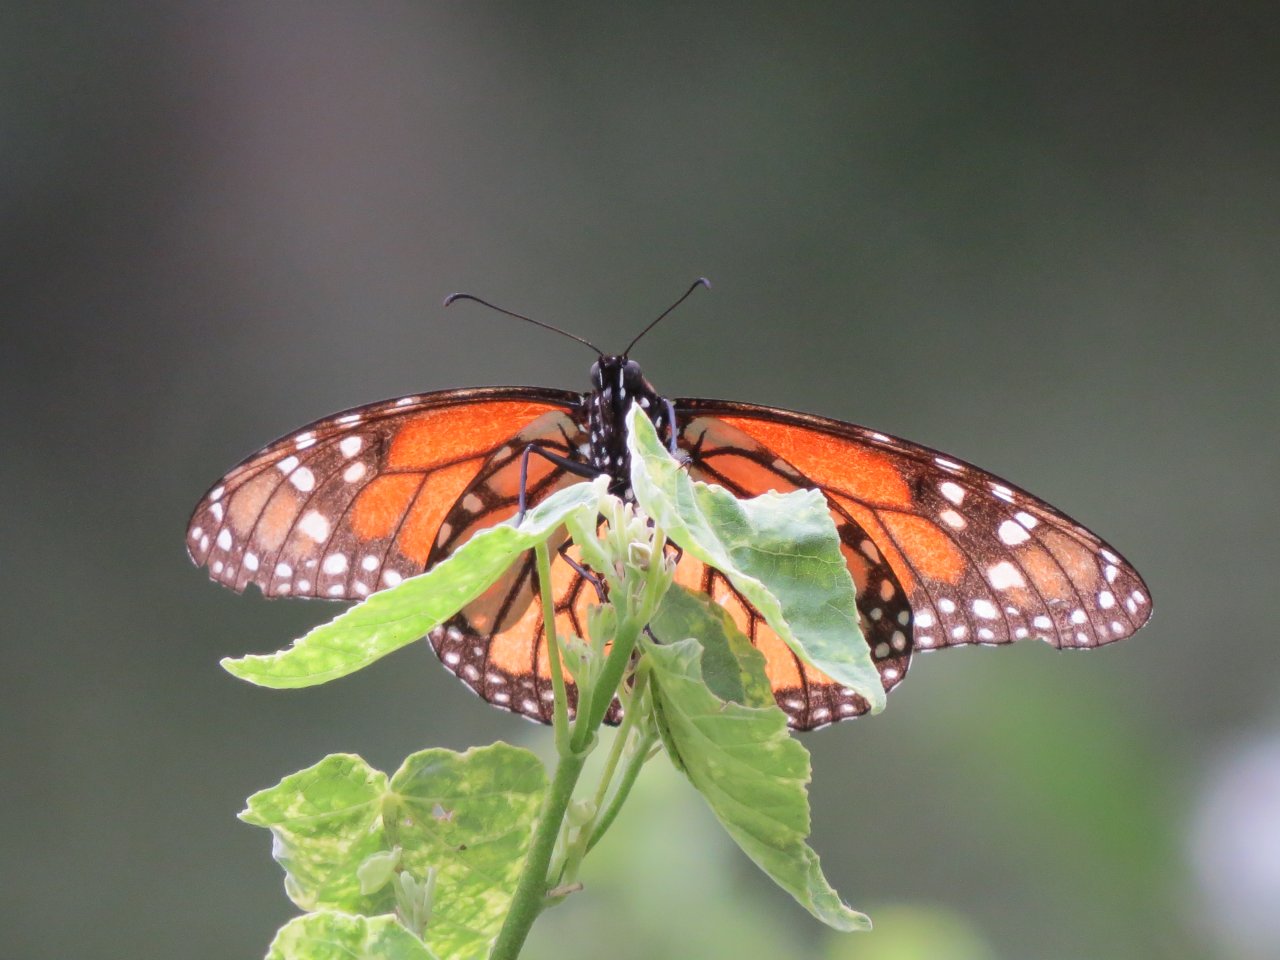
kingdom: Animalia
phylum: Arthropoda
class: Insecta
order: Lepidoptera
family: Nymphalidae
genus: Danaus
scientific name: Danaus plexippus
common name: Monarch
